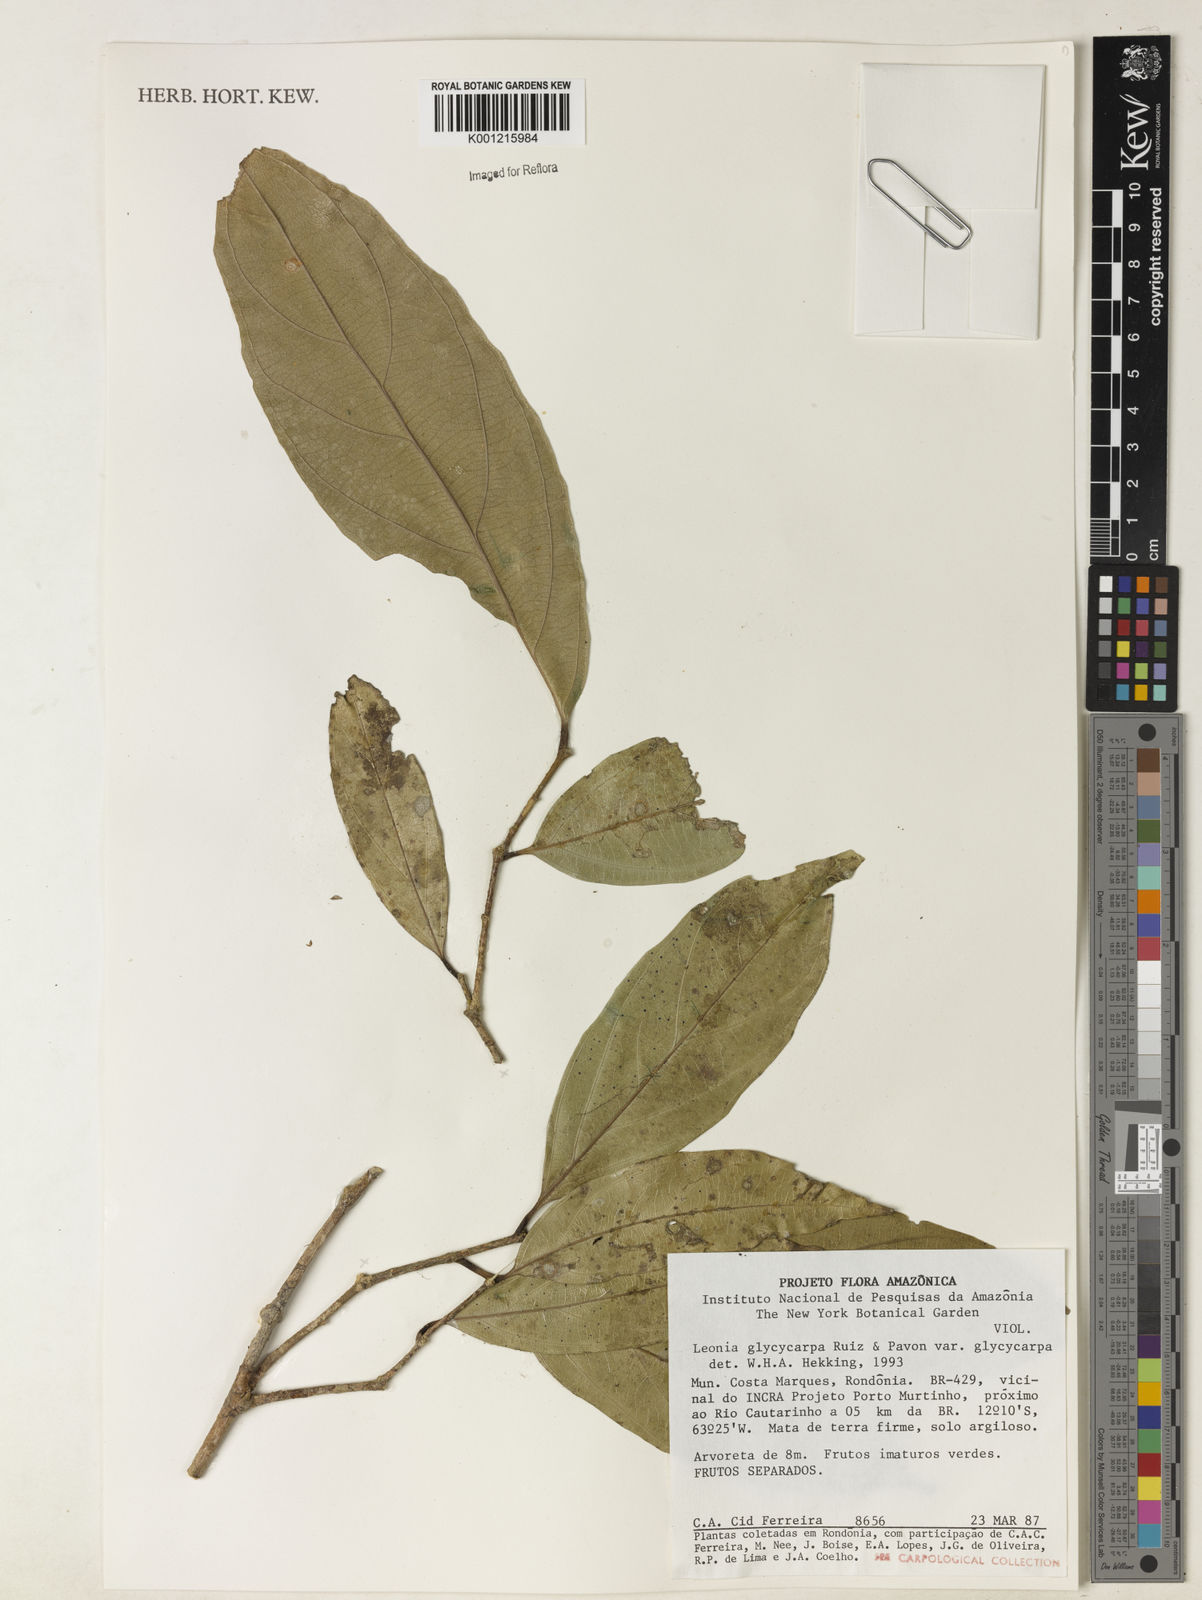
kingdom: Plantae
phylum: Tracheophyta
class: Magnoliopsida
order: Malpighiales
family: Violaceae
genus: Leonia
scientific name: Leonia glycycarpa
